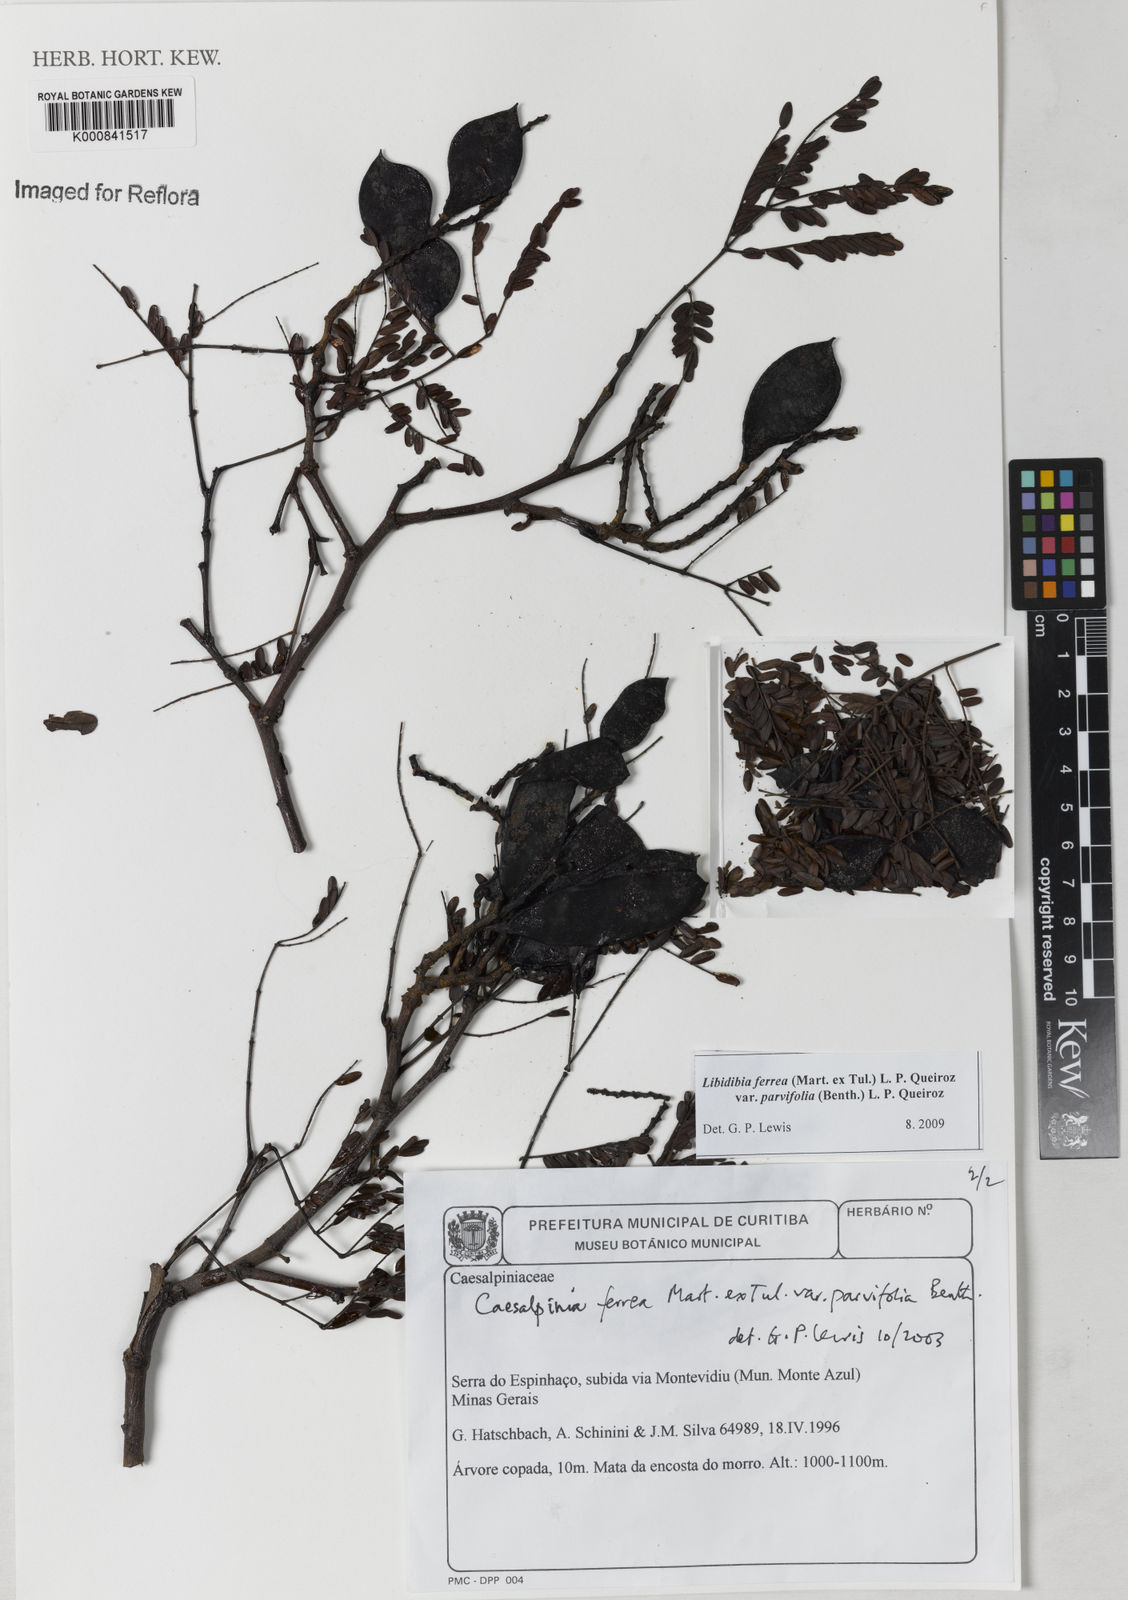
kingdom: Plantae
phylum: Tracheophyta
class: Magnoliopsida
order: Fabales
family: Fabaceae
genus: Libidibia
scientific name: Libidibia ferrea
